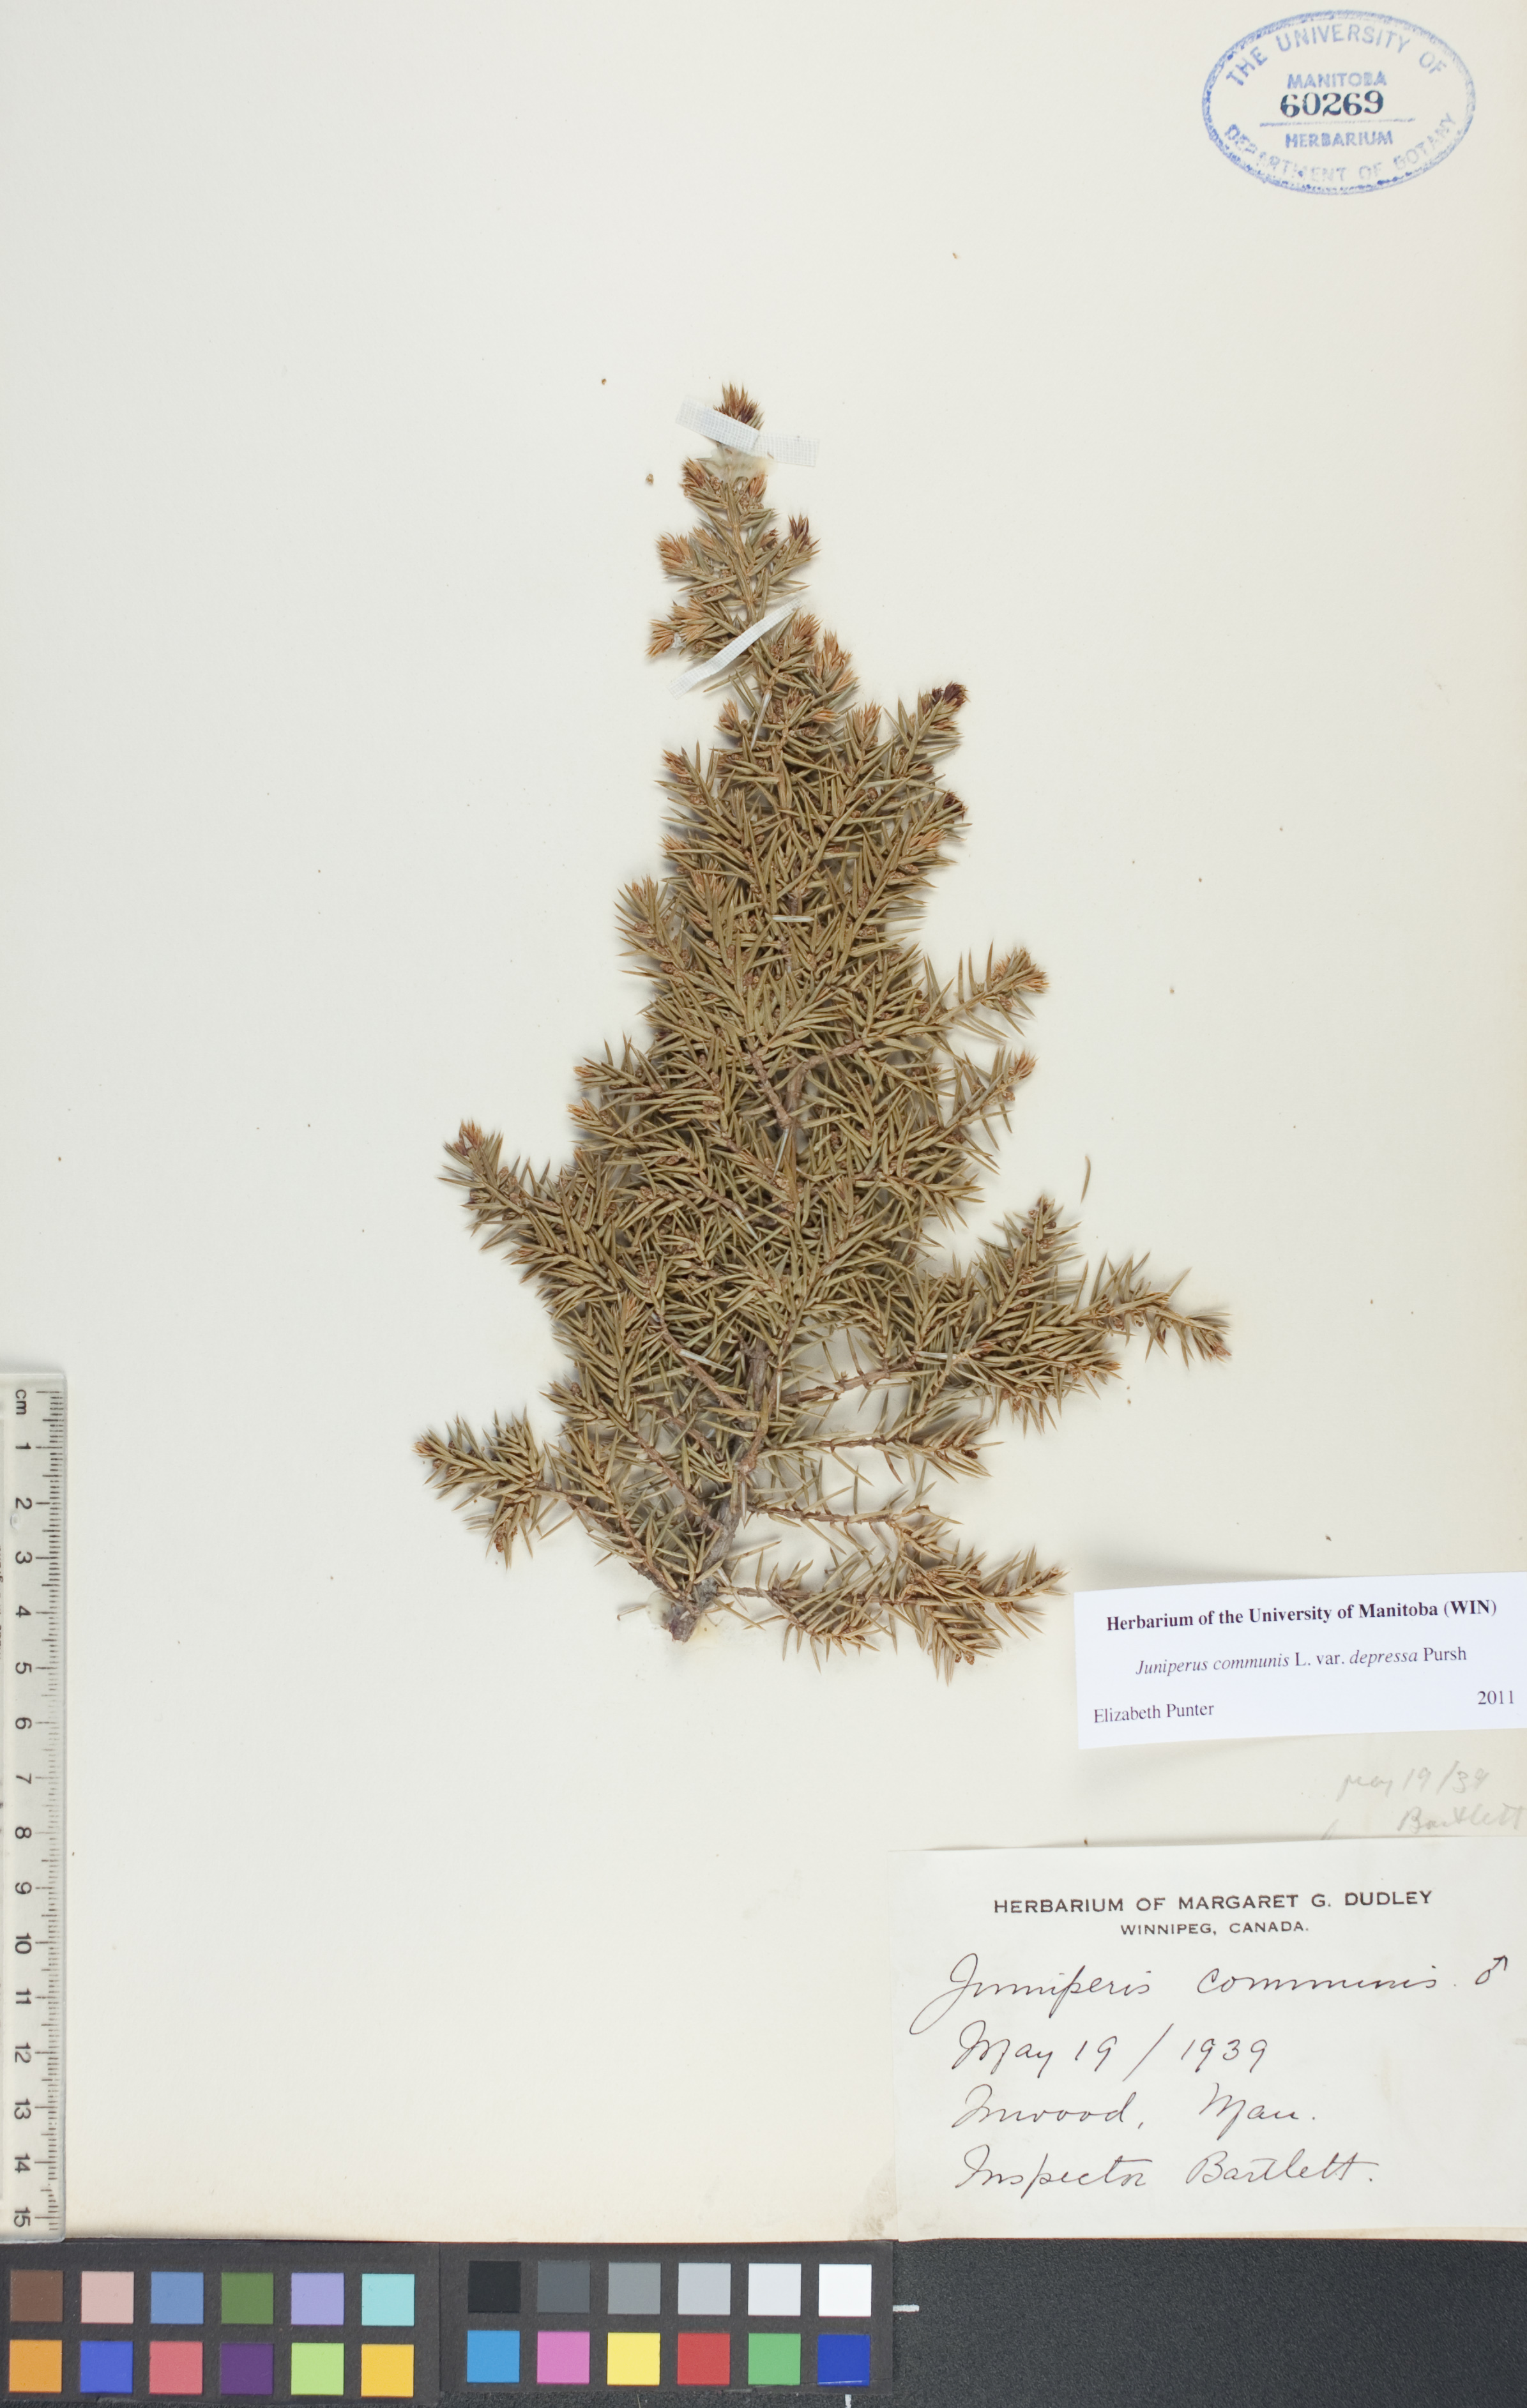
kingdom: Plantae
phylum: Tracheophyta
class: Pinopsida
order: Pinales
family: Cupressaceae
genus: Juniperus
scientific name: Juniperus communis
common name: Common juniper
